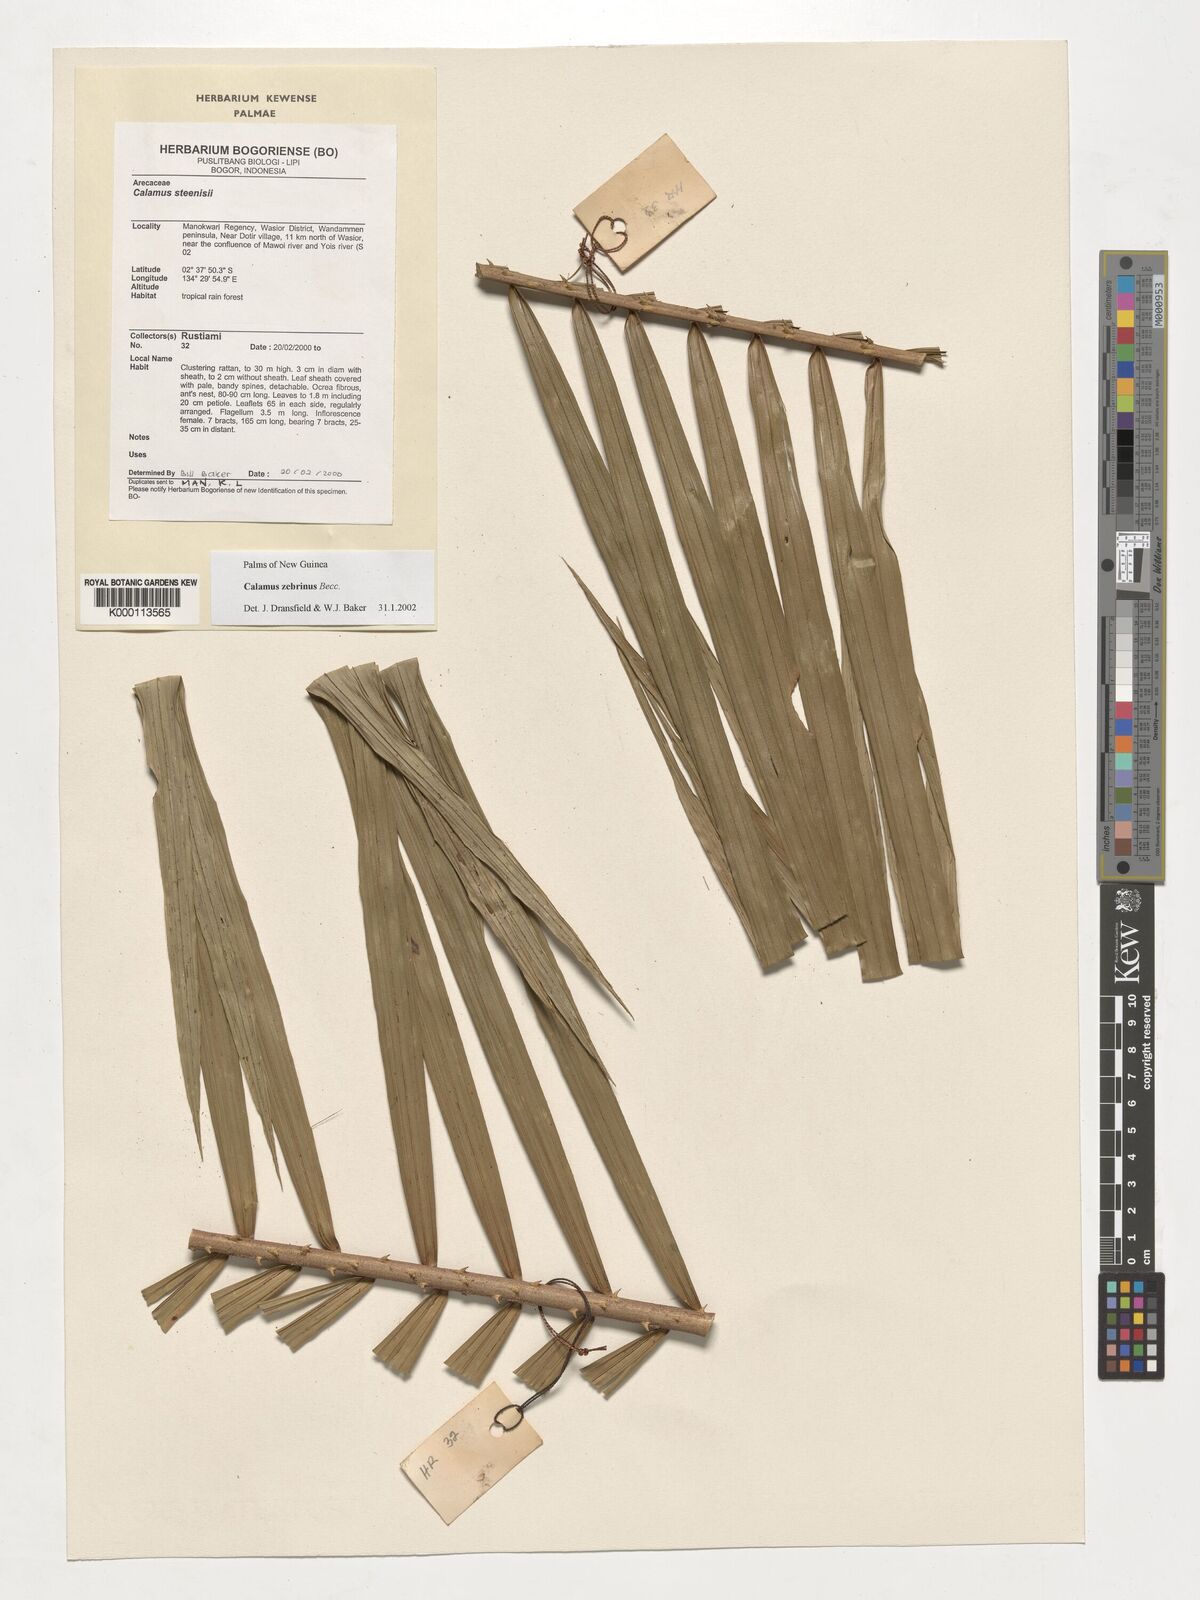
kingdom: Plantae
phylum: Tracheophyta
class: Liliopsida
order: Arecales
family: Arecaceae
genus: Calamus
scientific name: Calamus zebrinus
